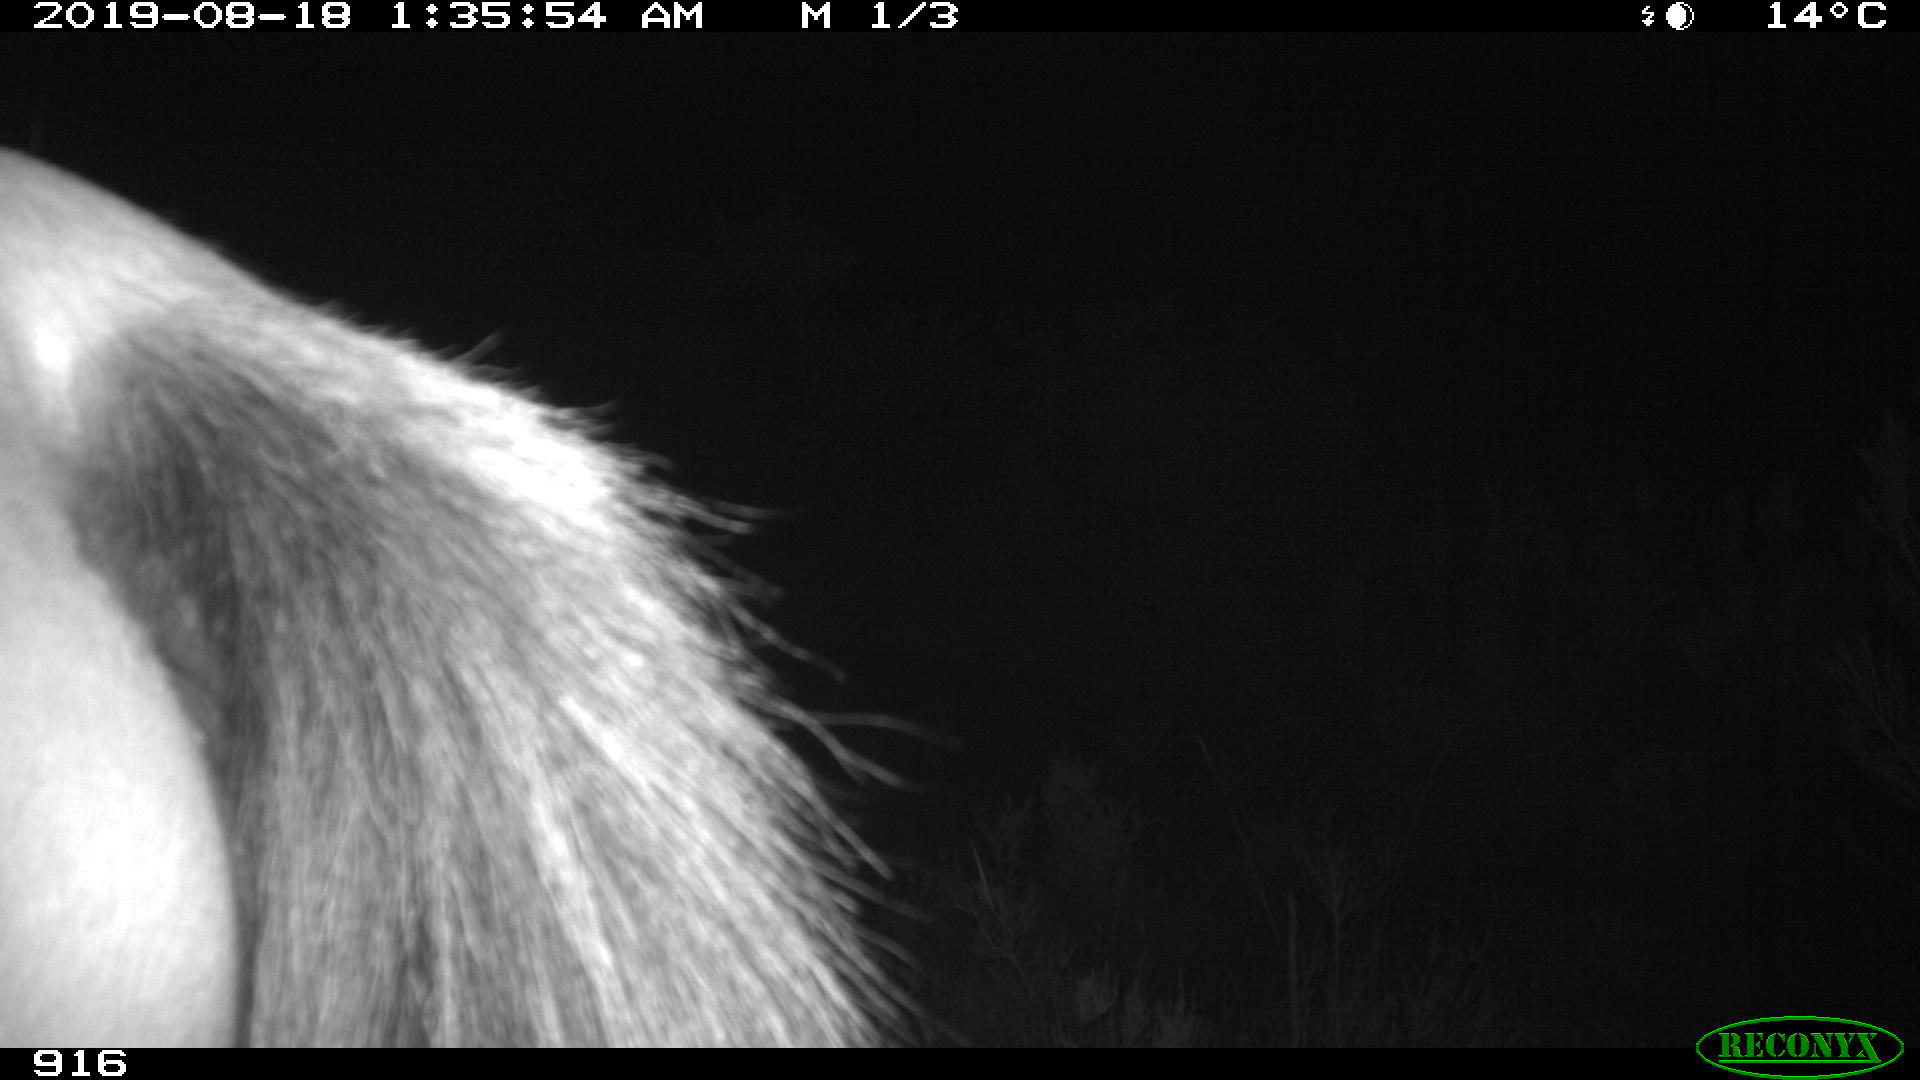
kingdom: Animalia
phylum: Chordata
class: Mammalia
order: Perissodactyla
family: Equidae
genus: Equus
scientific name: Equus caballus
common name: Horse
